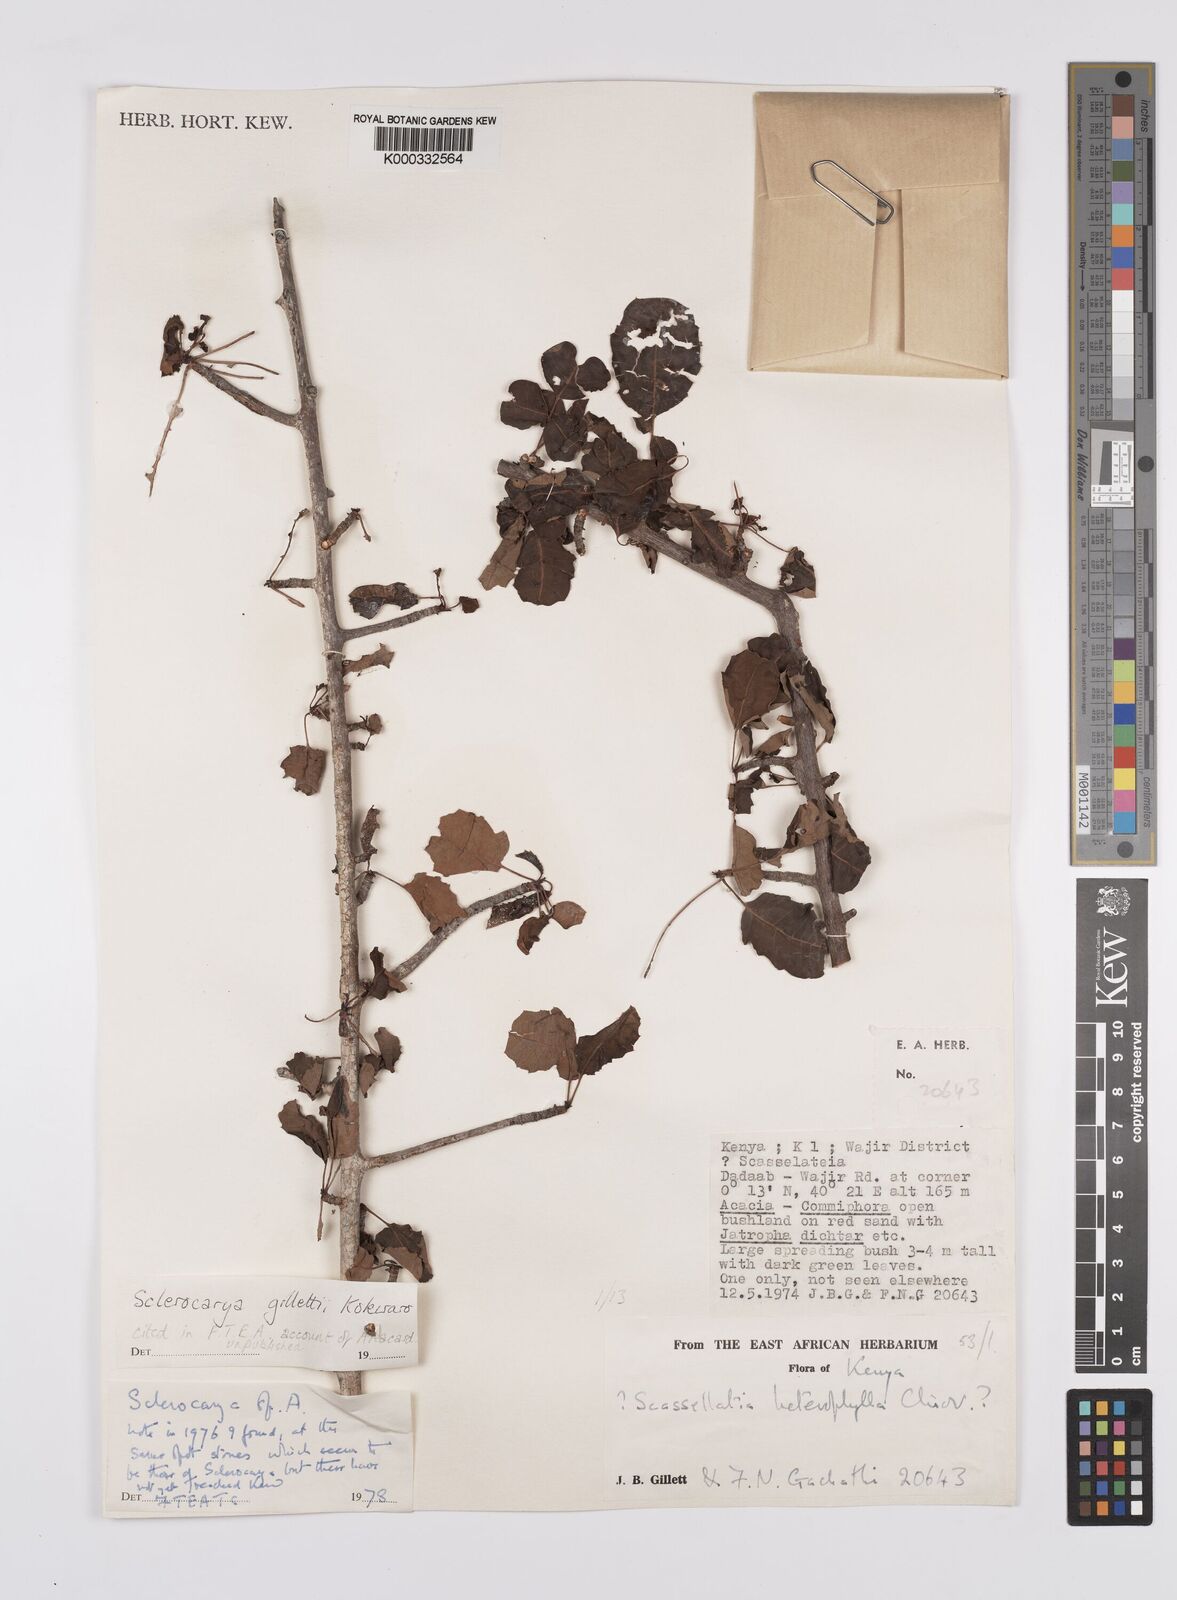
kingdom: Plantae
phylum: Tracheophyta
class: Magnoliopsida
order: Sapindales
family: Anacardiaceae
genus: Sclerocarya
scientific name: Sclerocarya gillettii
